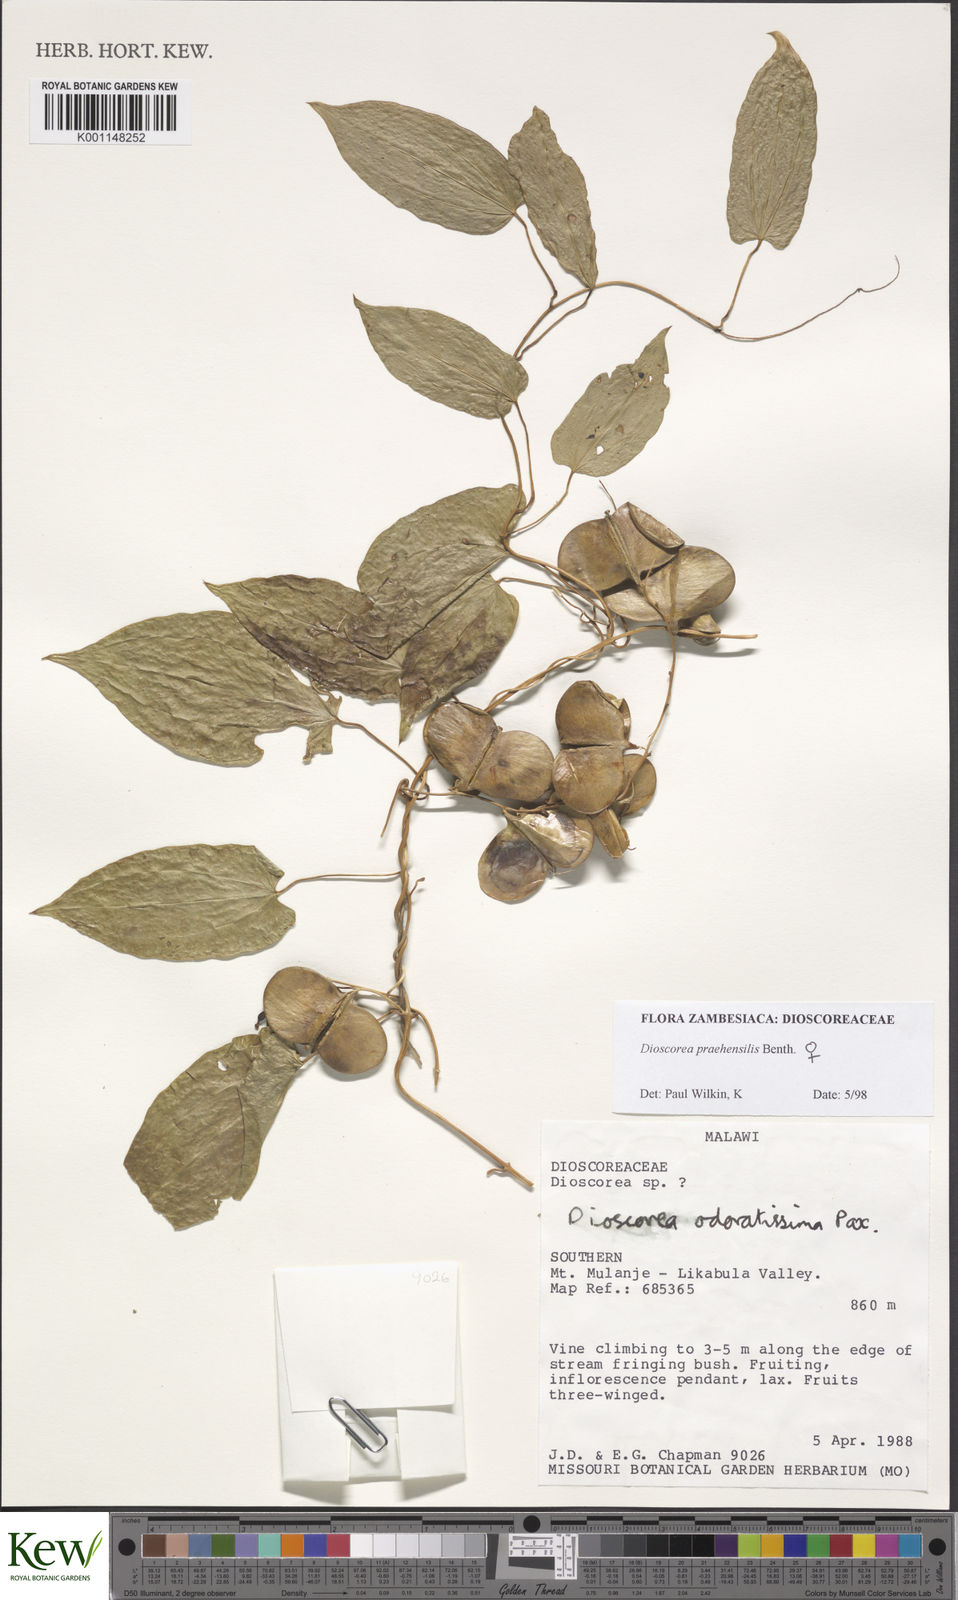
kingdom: Plantae
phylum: Tracheophyta
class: Liliopsida
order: Dioscoreales
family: Dioscoreaceae
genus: Dioscorea
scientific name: Dioscorea praehensilis
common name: Bush yam
